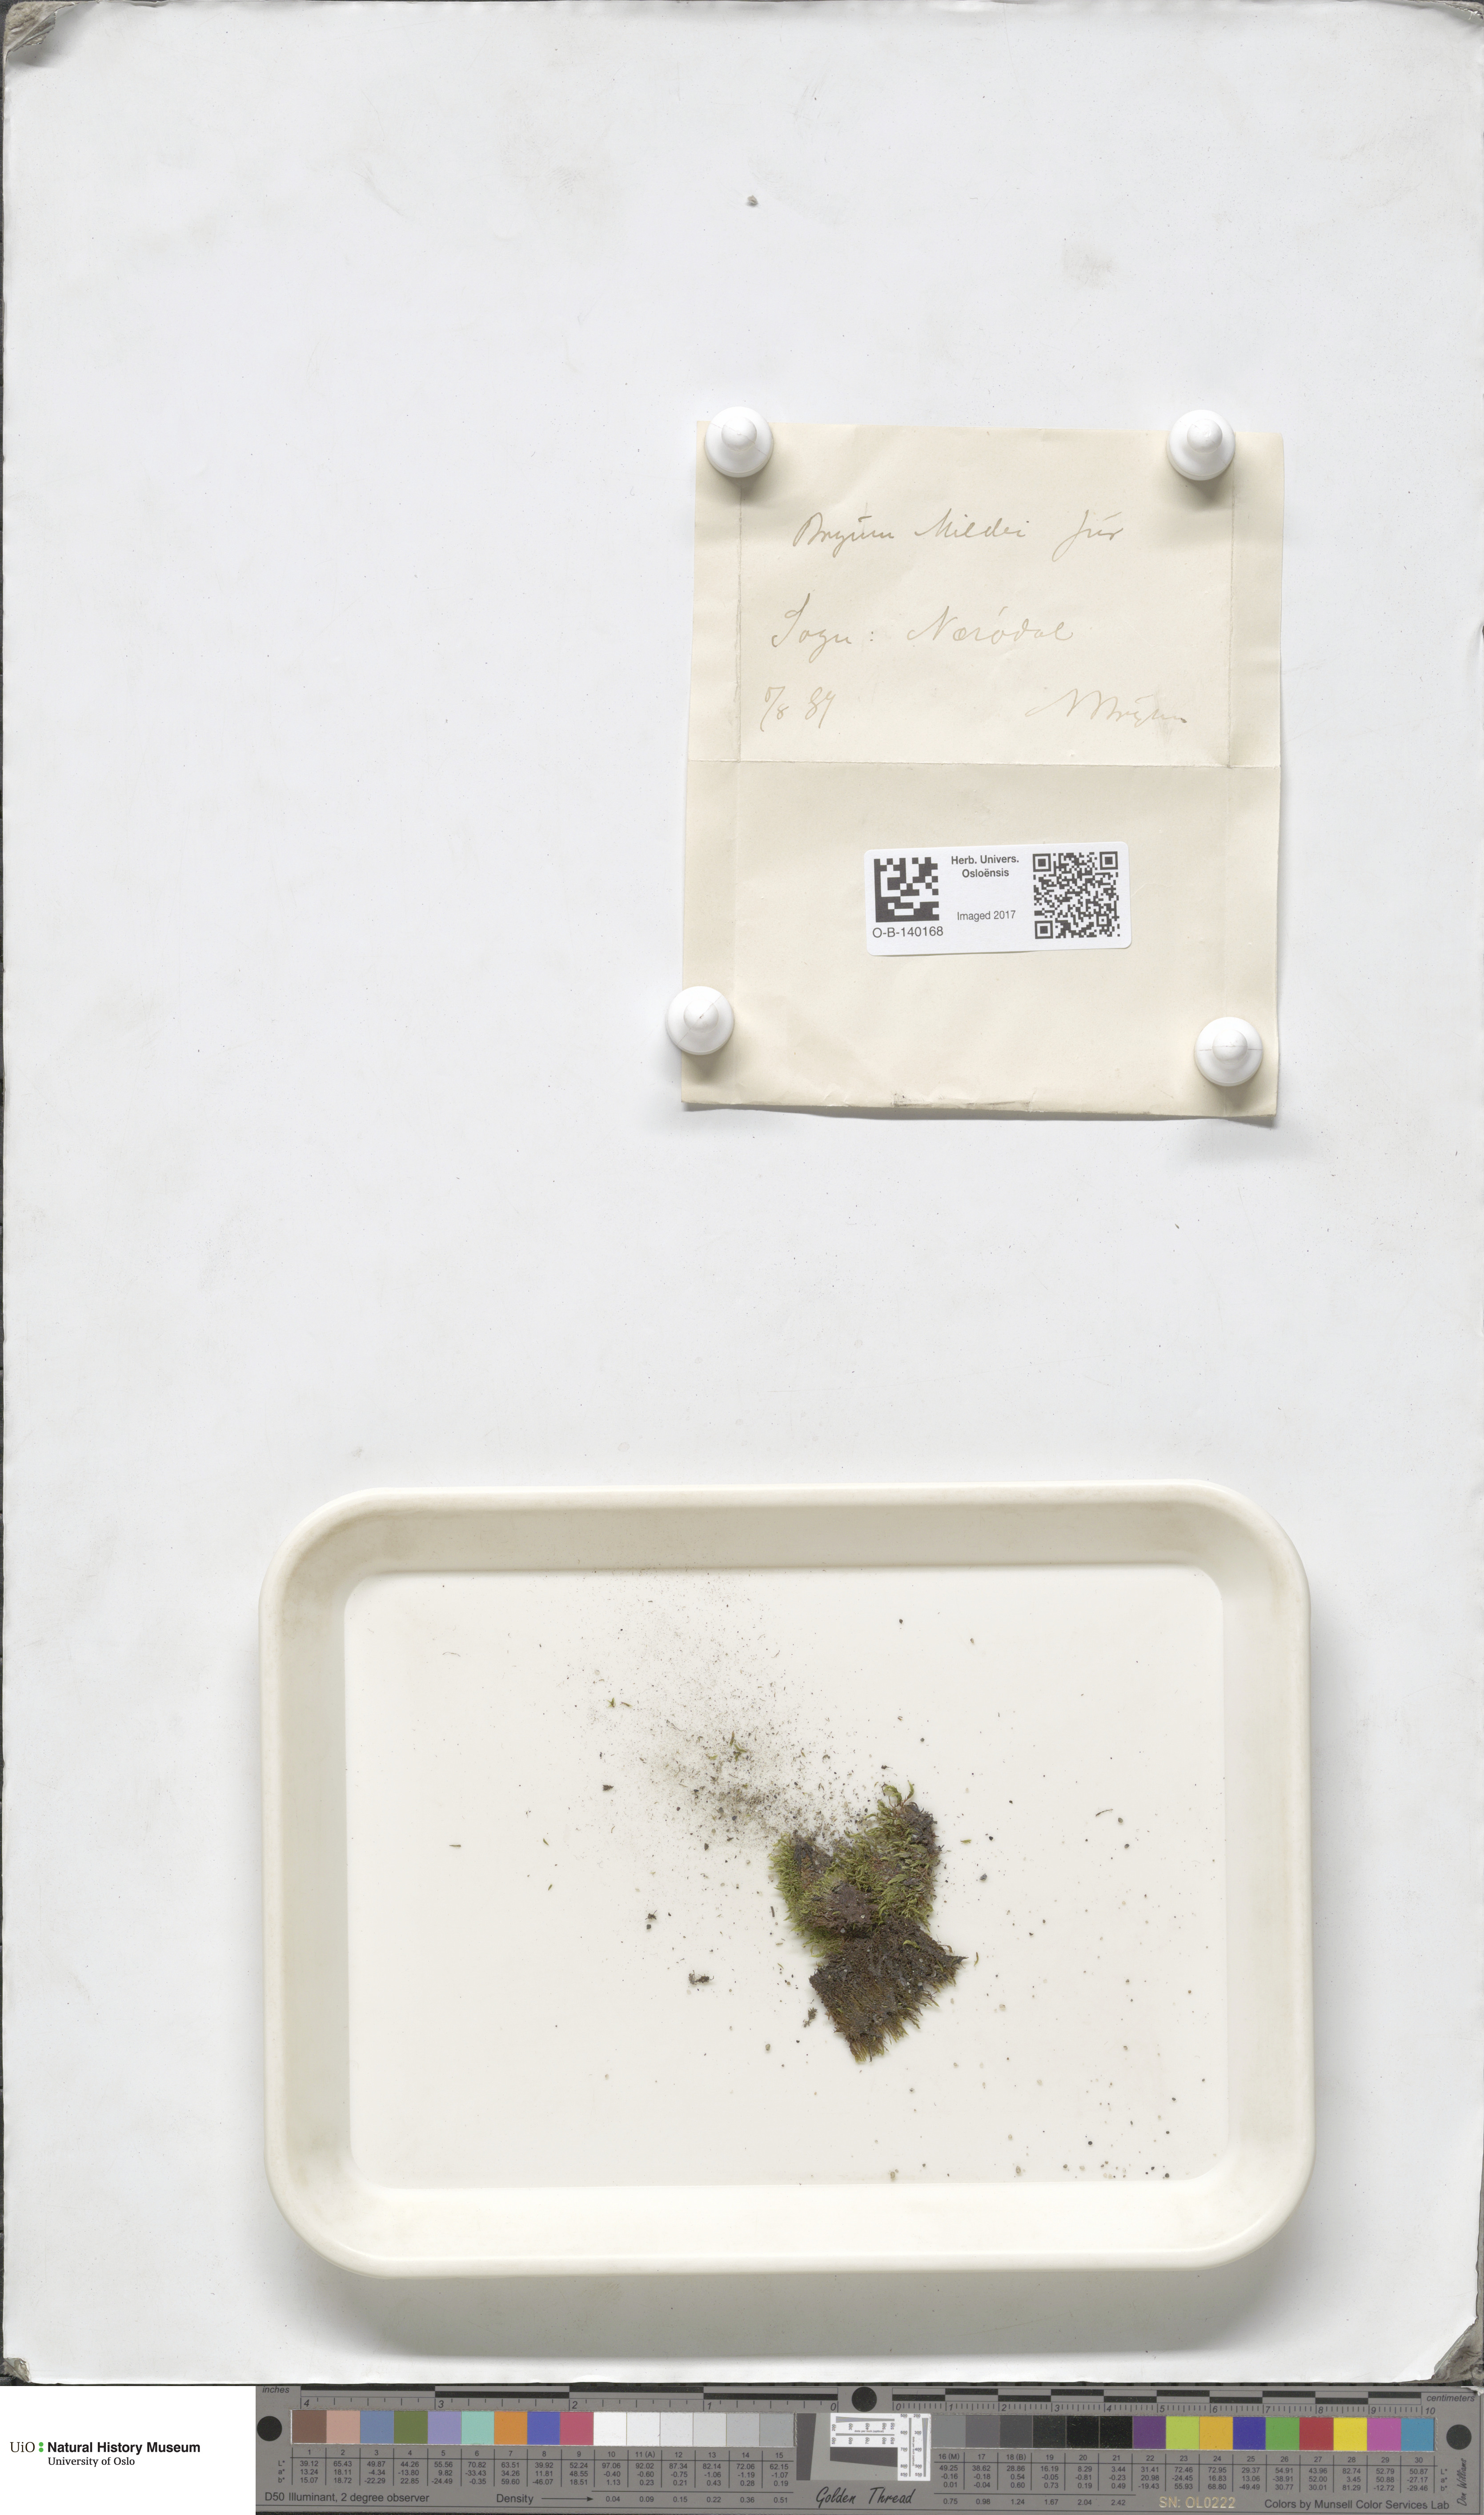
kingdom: Plantae
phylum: Bryophyta
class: Bryopsida
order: Bryales
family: Bryaceae
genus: Imbribryum
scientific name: Imbribryum mildeanum
